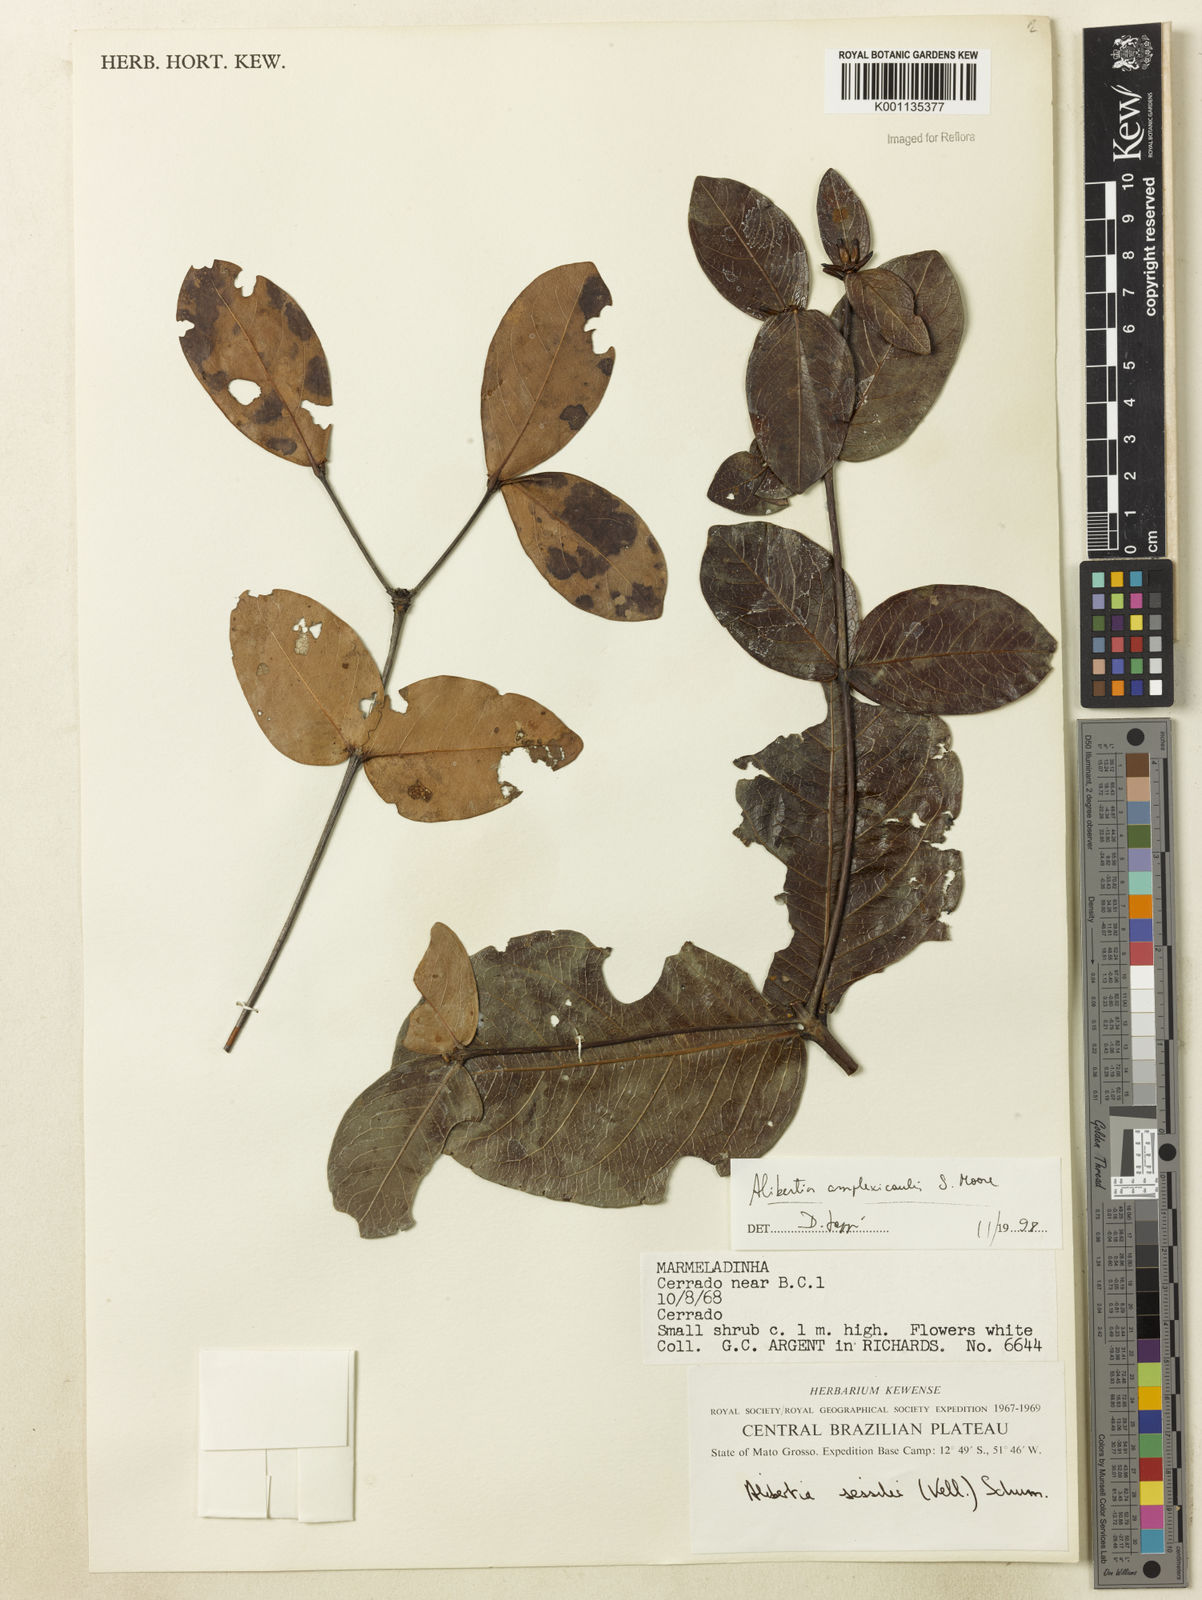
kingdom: Plantae
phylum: Tracheophyta
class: Magnoliopsida
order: Gentianales
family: Rubiaceae
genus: Cordiera
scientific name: Cordiera humilis
